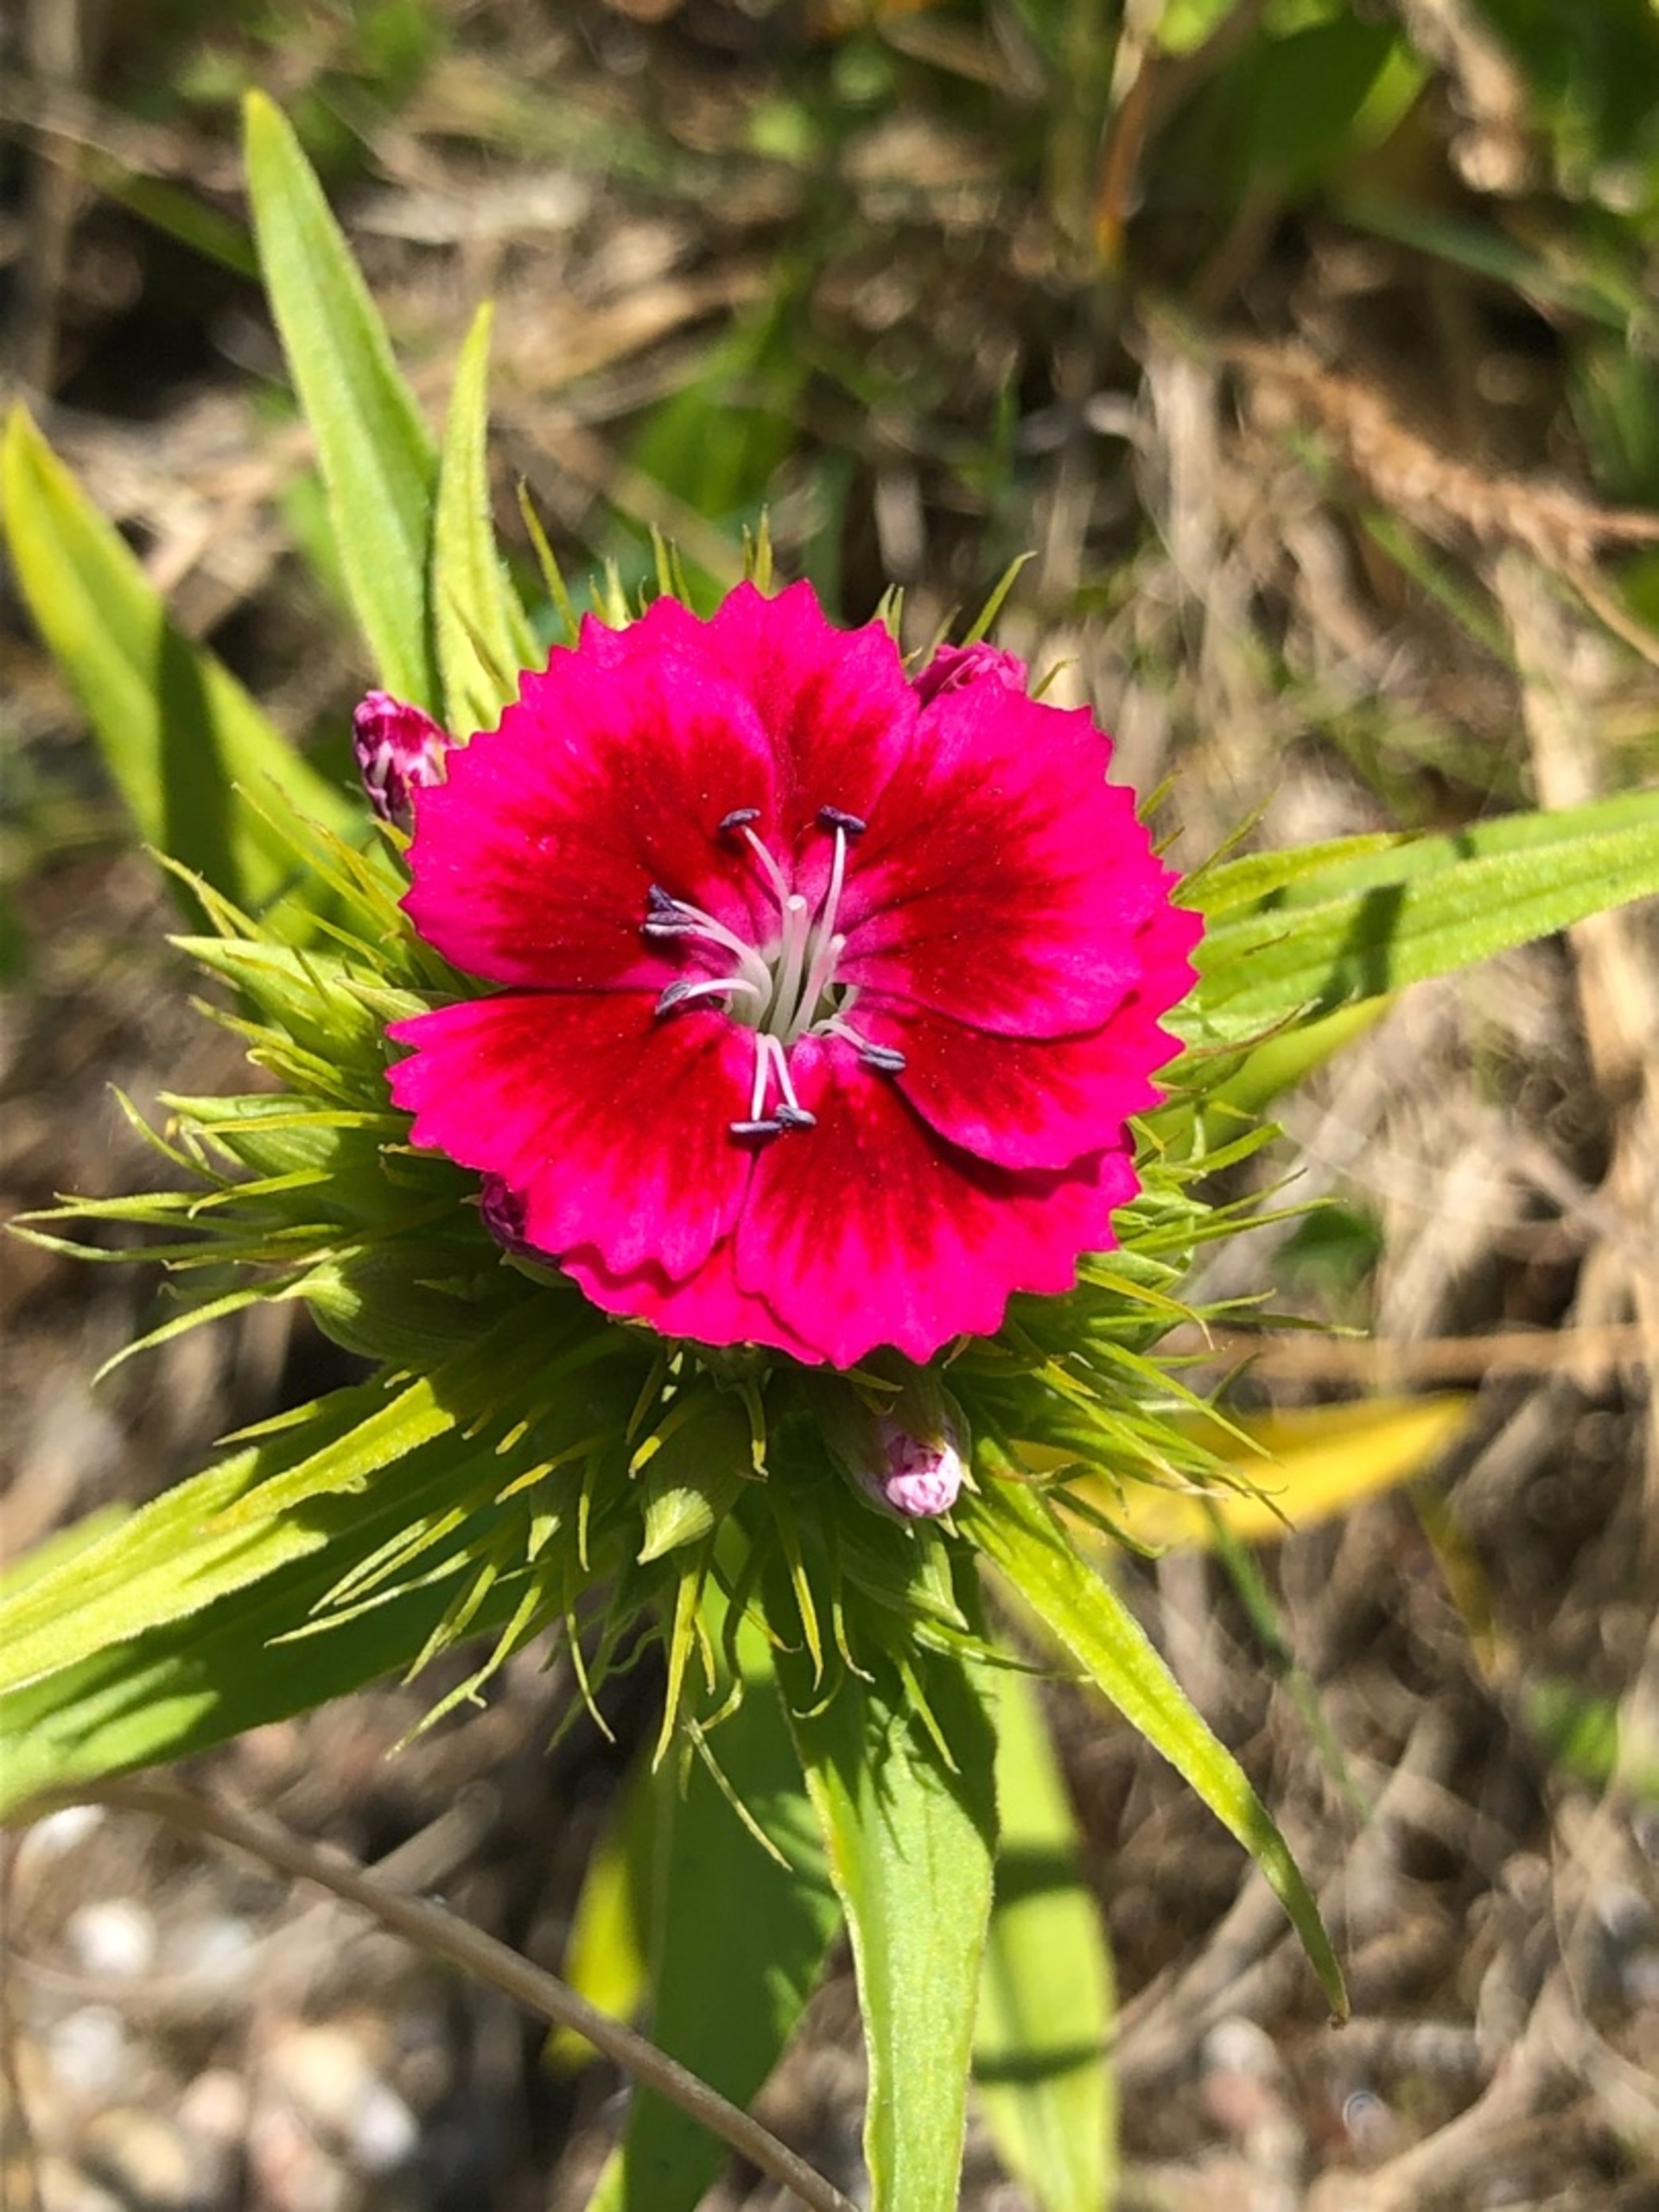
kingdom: Plantae
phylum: Tracheophyta
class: Magnoliopsida
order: Caryophyllales
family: Caryophyllaceae
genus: Dianthus
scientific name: Dianthus barbatus
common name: Studenter-nellike
